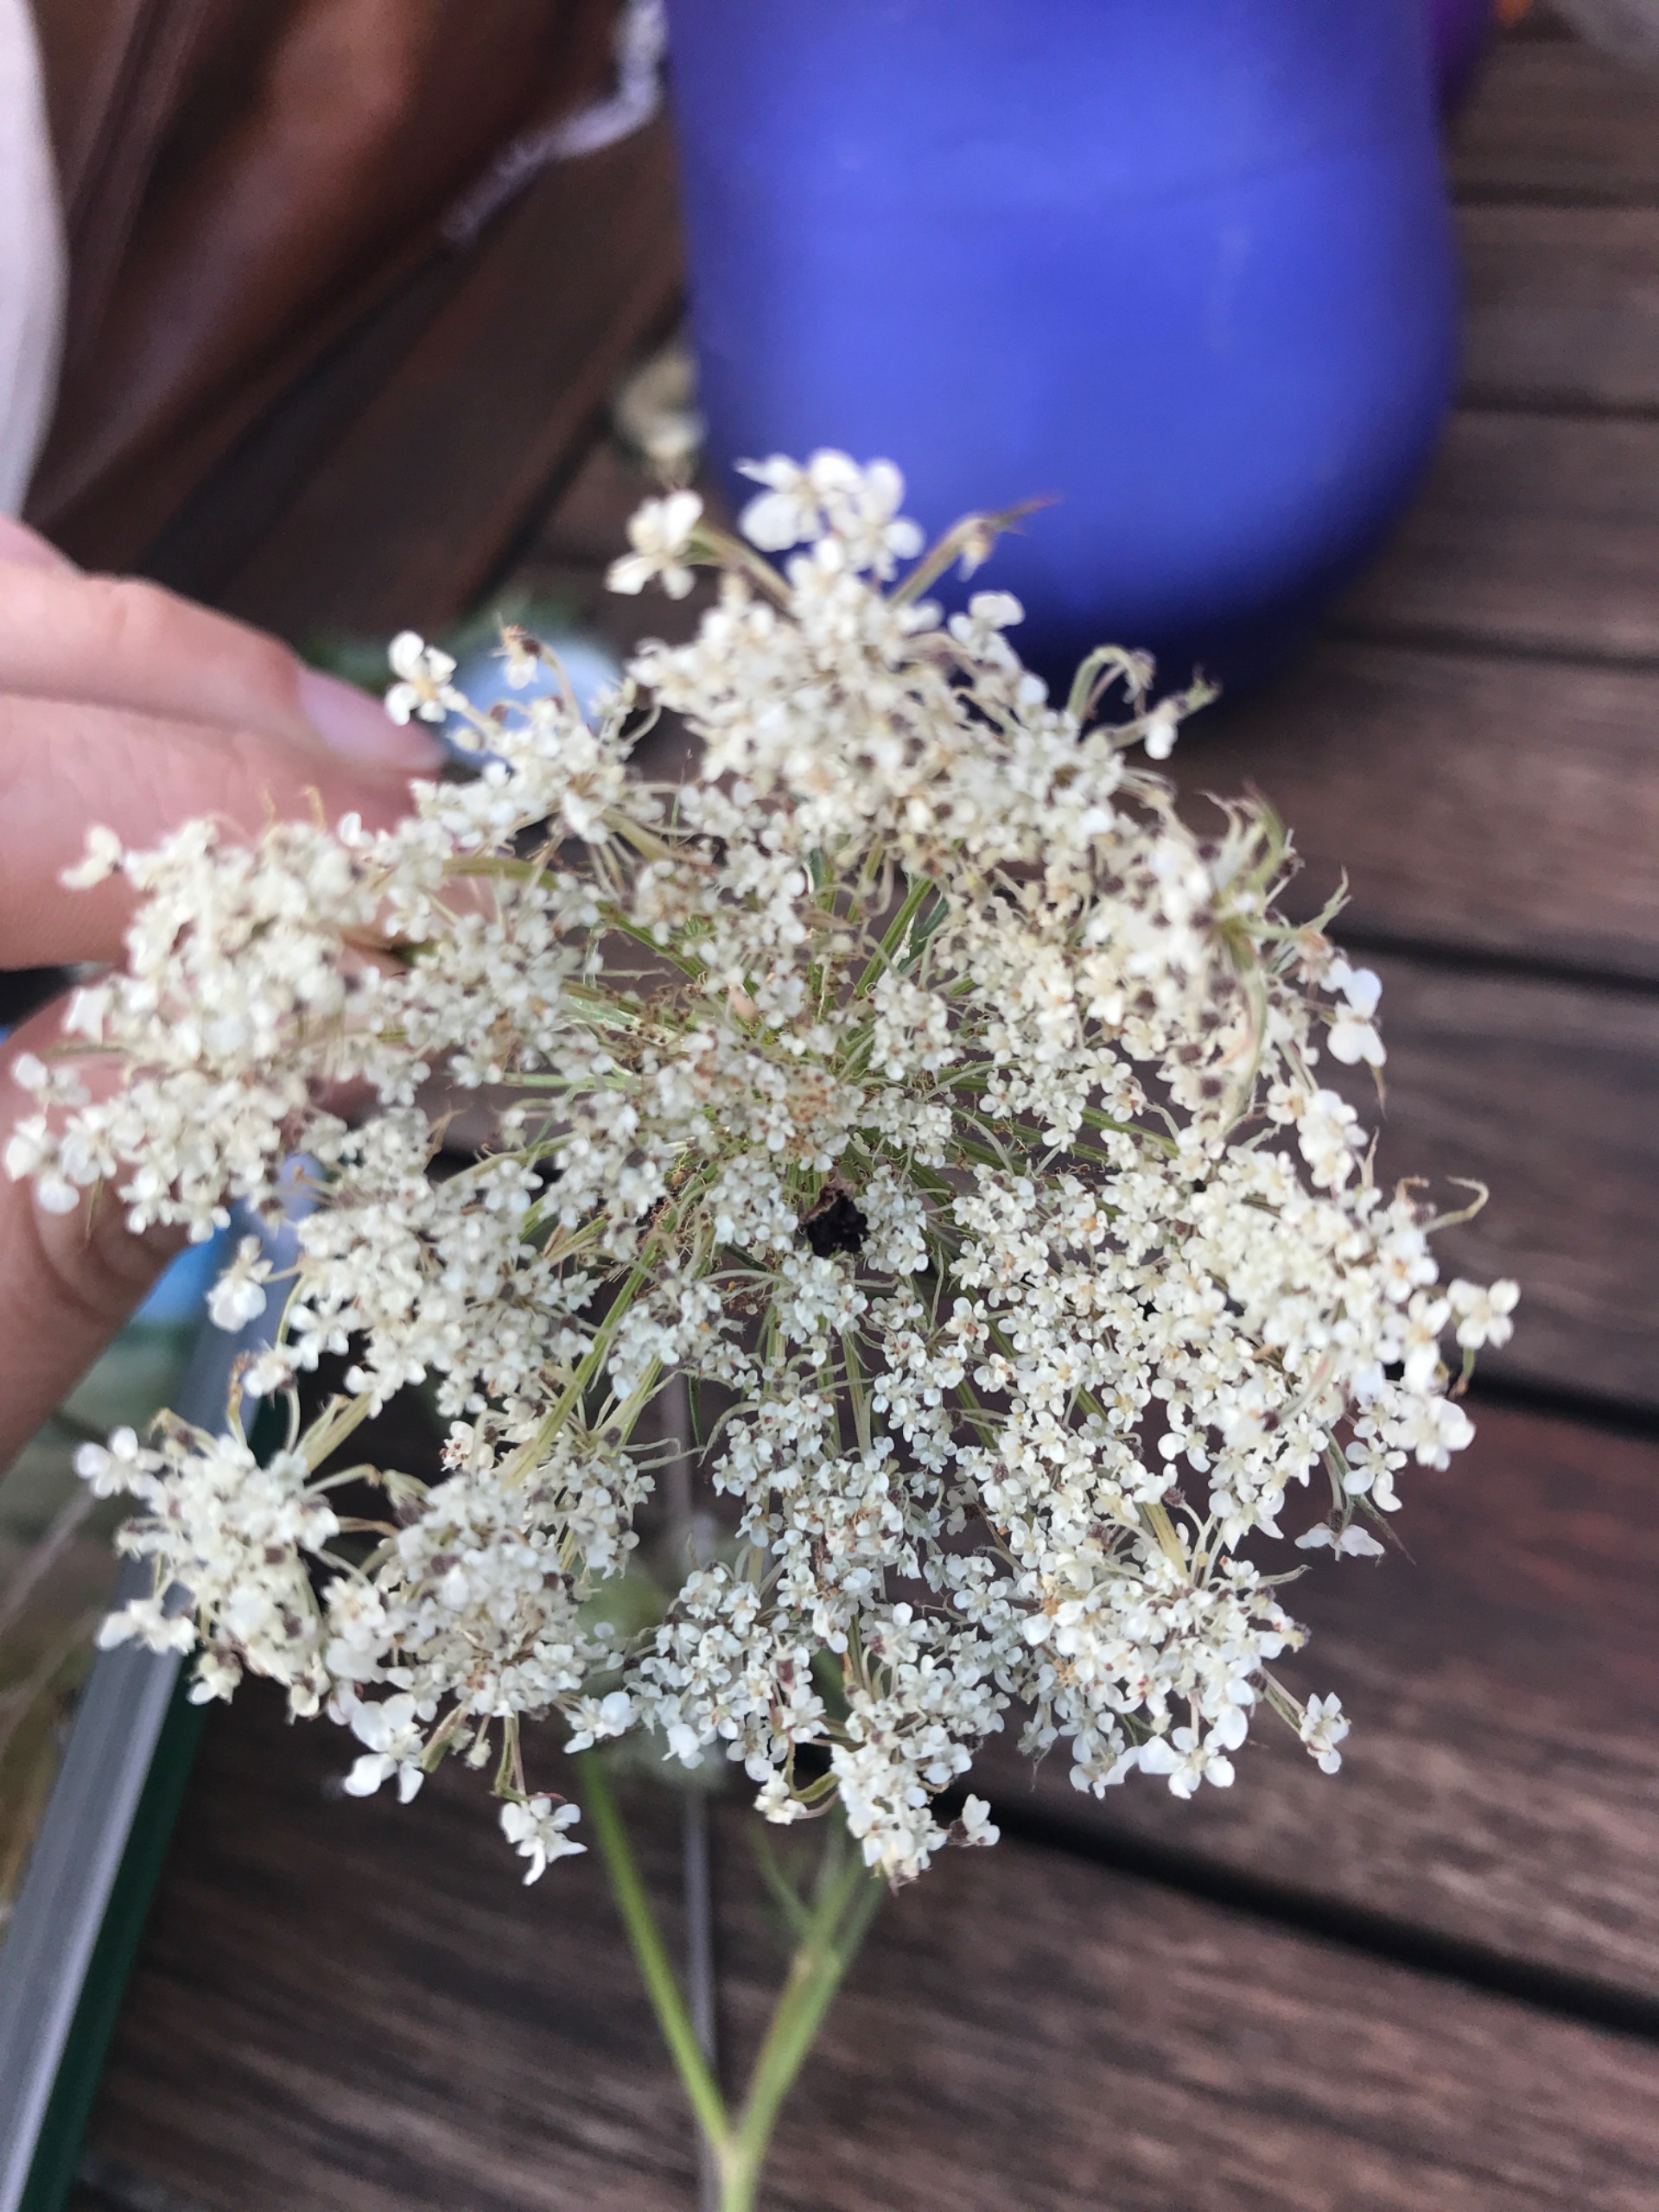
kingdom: Plantae
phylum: Tracheophyta
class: Magnoliopsida
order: Apiales
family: Apiaceae
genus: Daucus
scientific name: Daucus carota
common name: Gulerod
